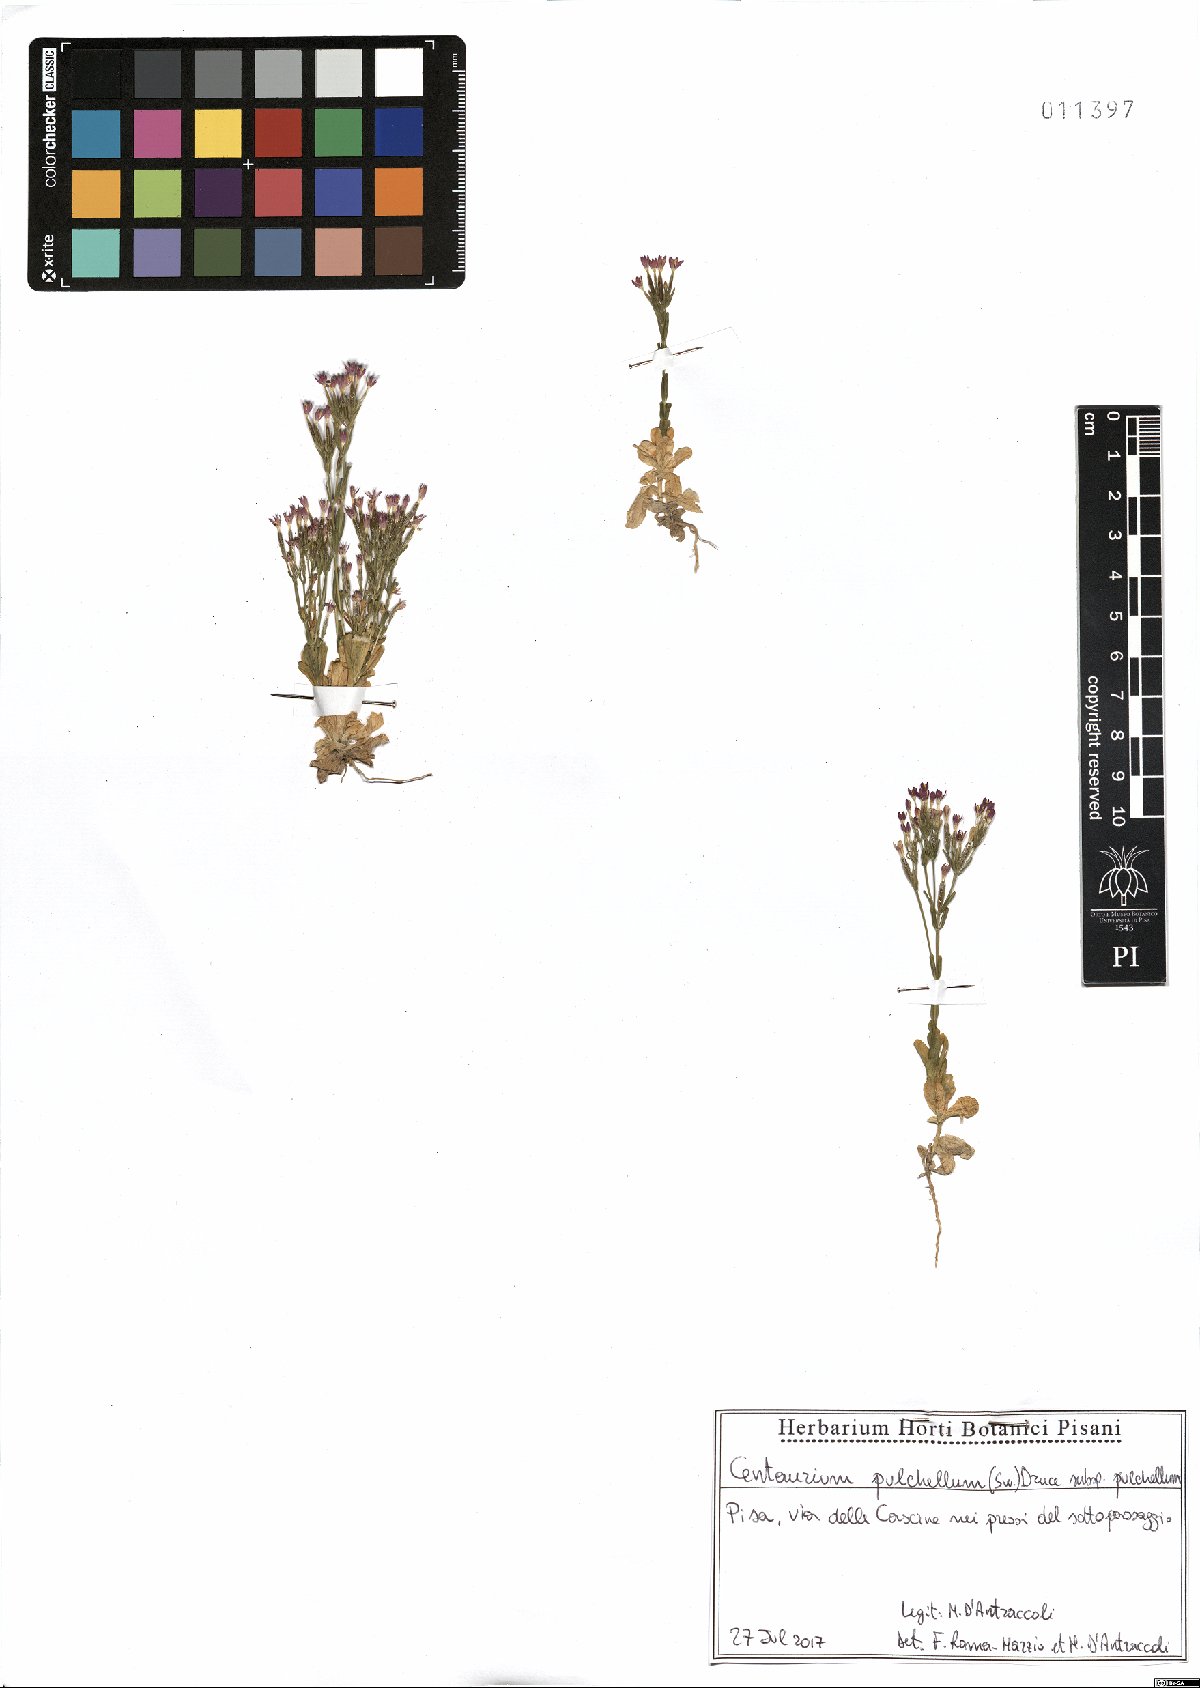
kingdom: Plantae
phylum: Tracheophyta
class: Magnoliopsida
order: Gentianales
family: Gentianaceae
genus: Centaurium
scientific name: Centaurium pulchellum
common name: Lesser centaury
